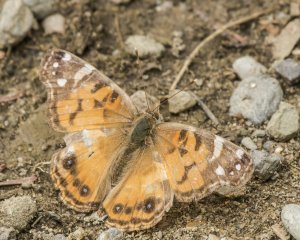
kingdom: Animalia
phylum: Arthropoda
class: Insecta
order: Lepidoptera
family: Nymphalidae
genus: Vanessa
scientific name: Vanessa virginiensis
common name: American Lady
